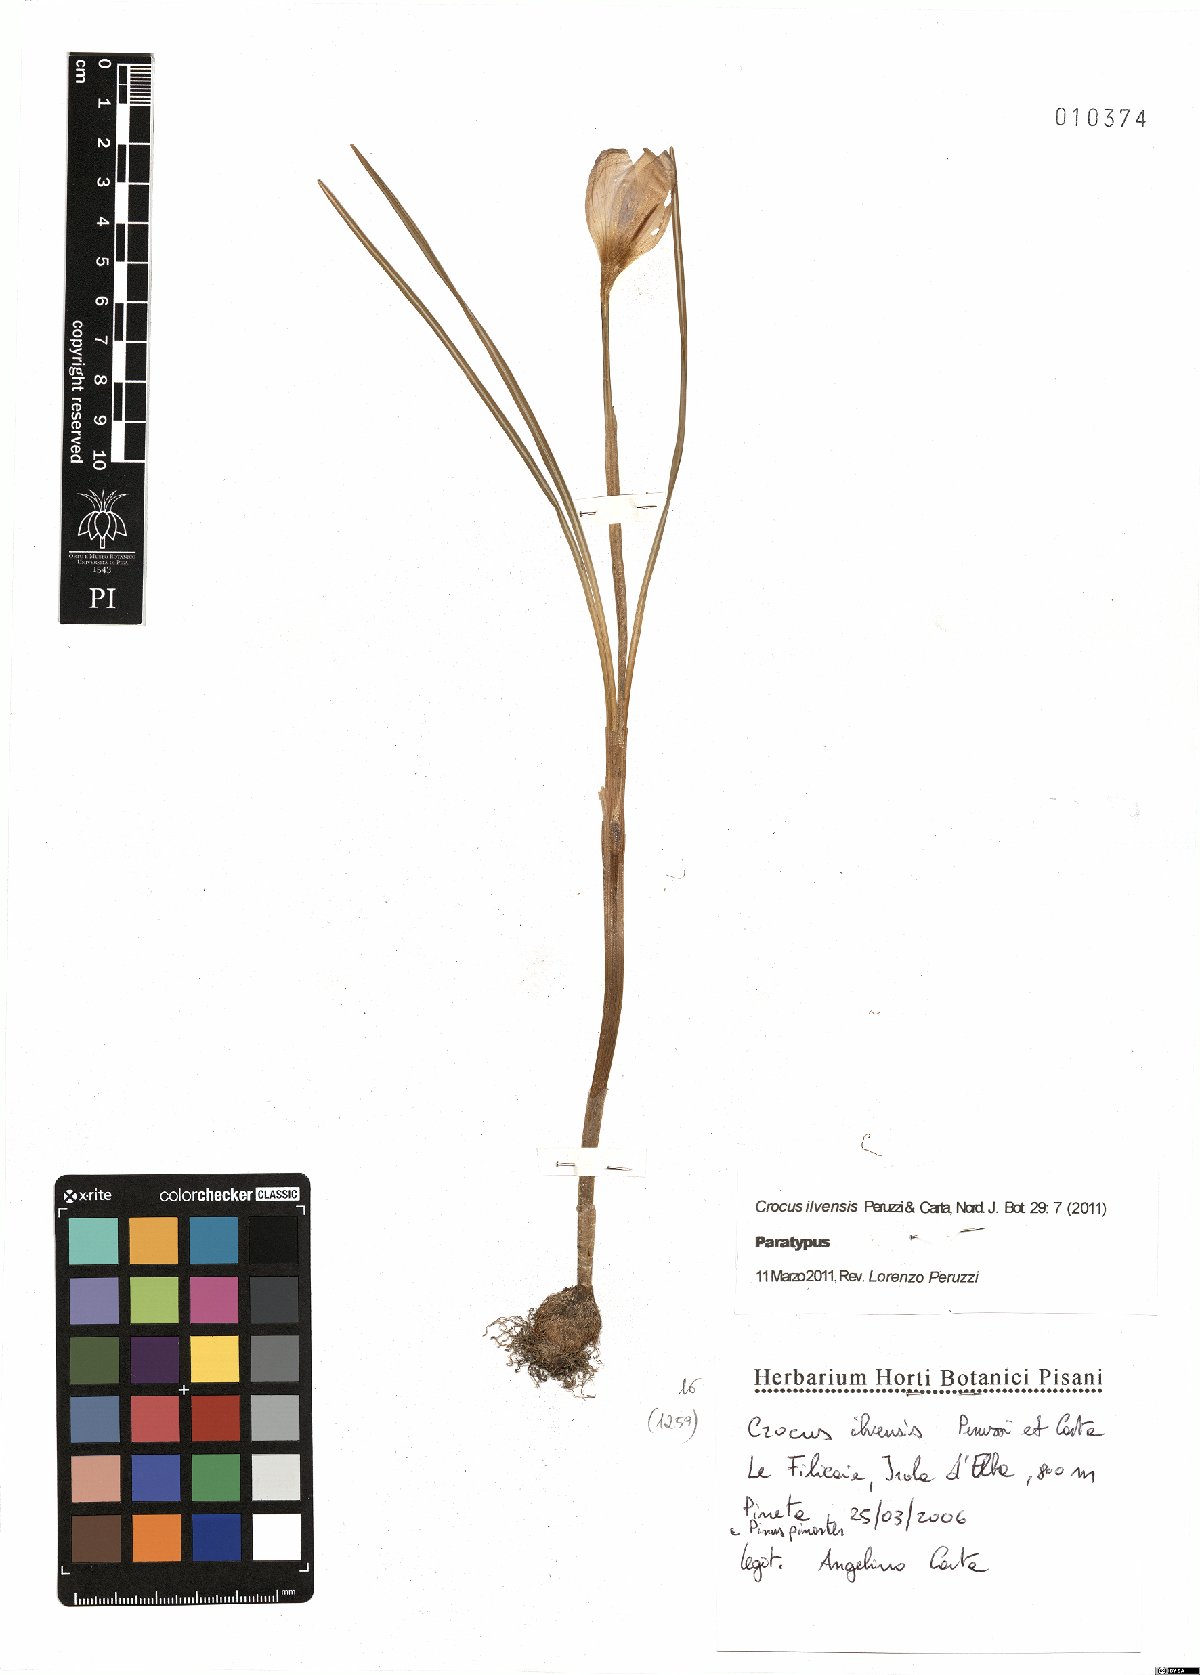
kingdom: Plantae
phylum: Tracheophyta
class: Liliopsida
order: Asparagales
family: Iridaceae
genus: Crocus
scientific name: Crocus ilvensis
